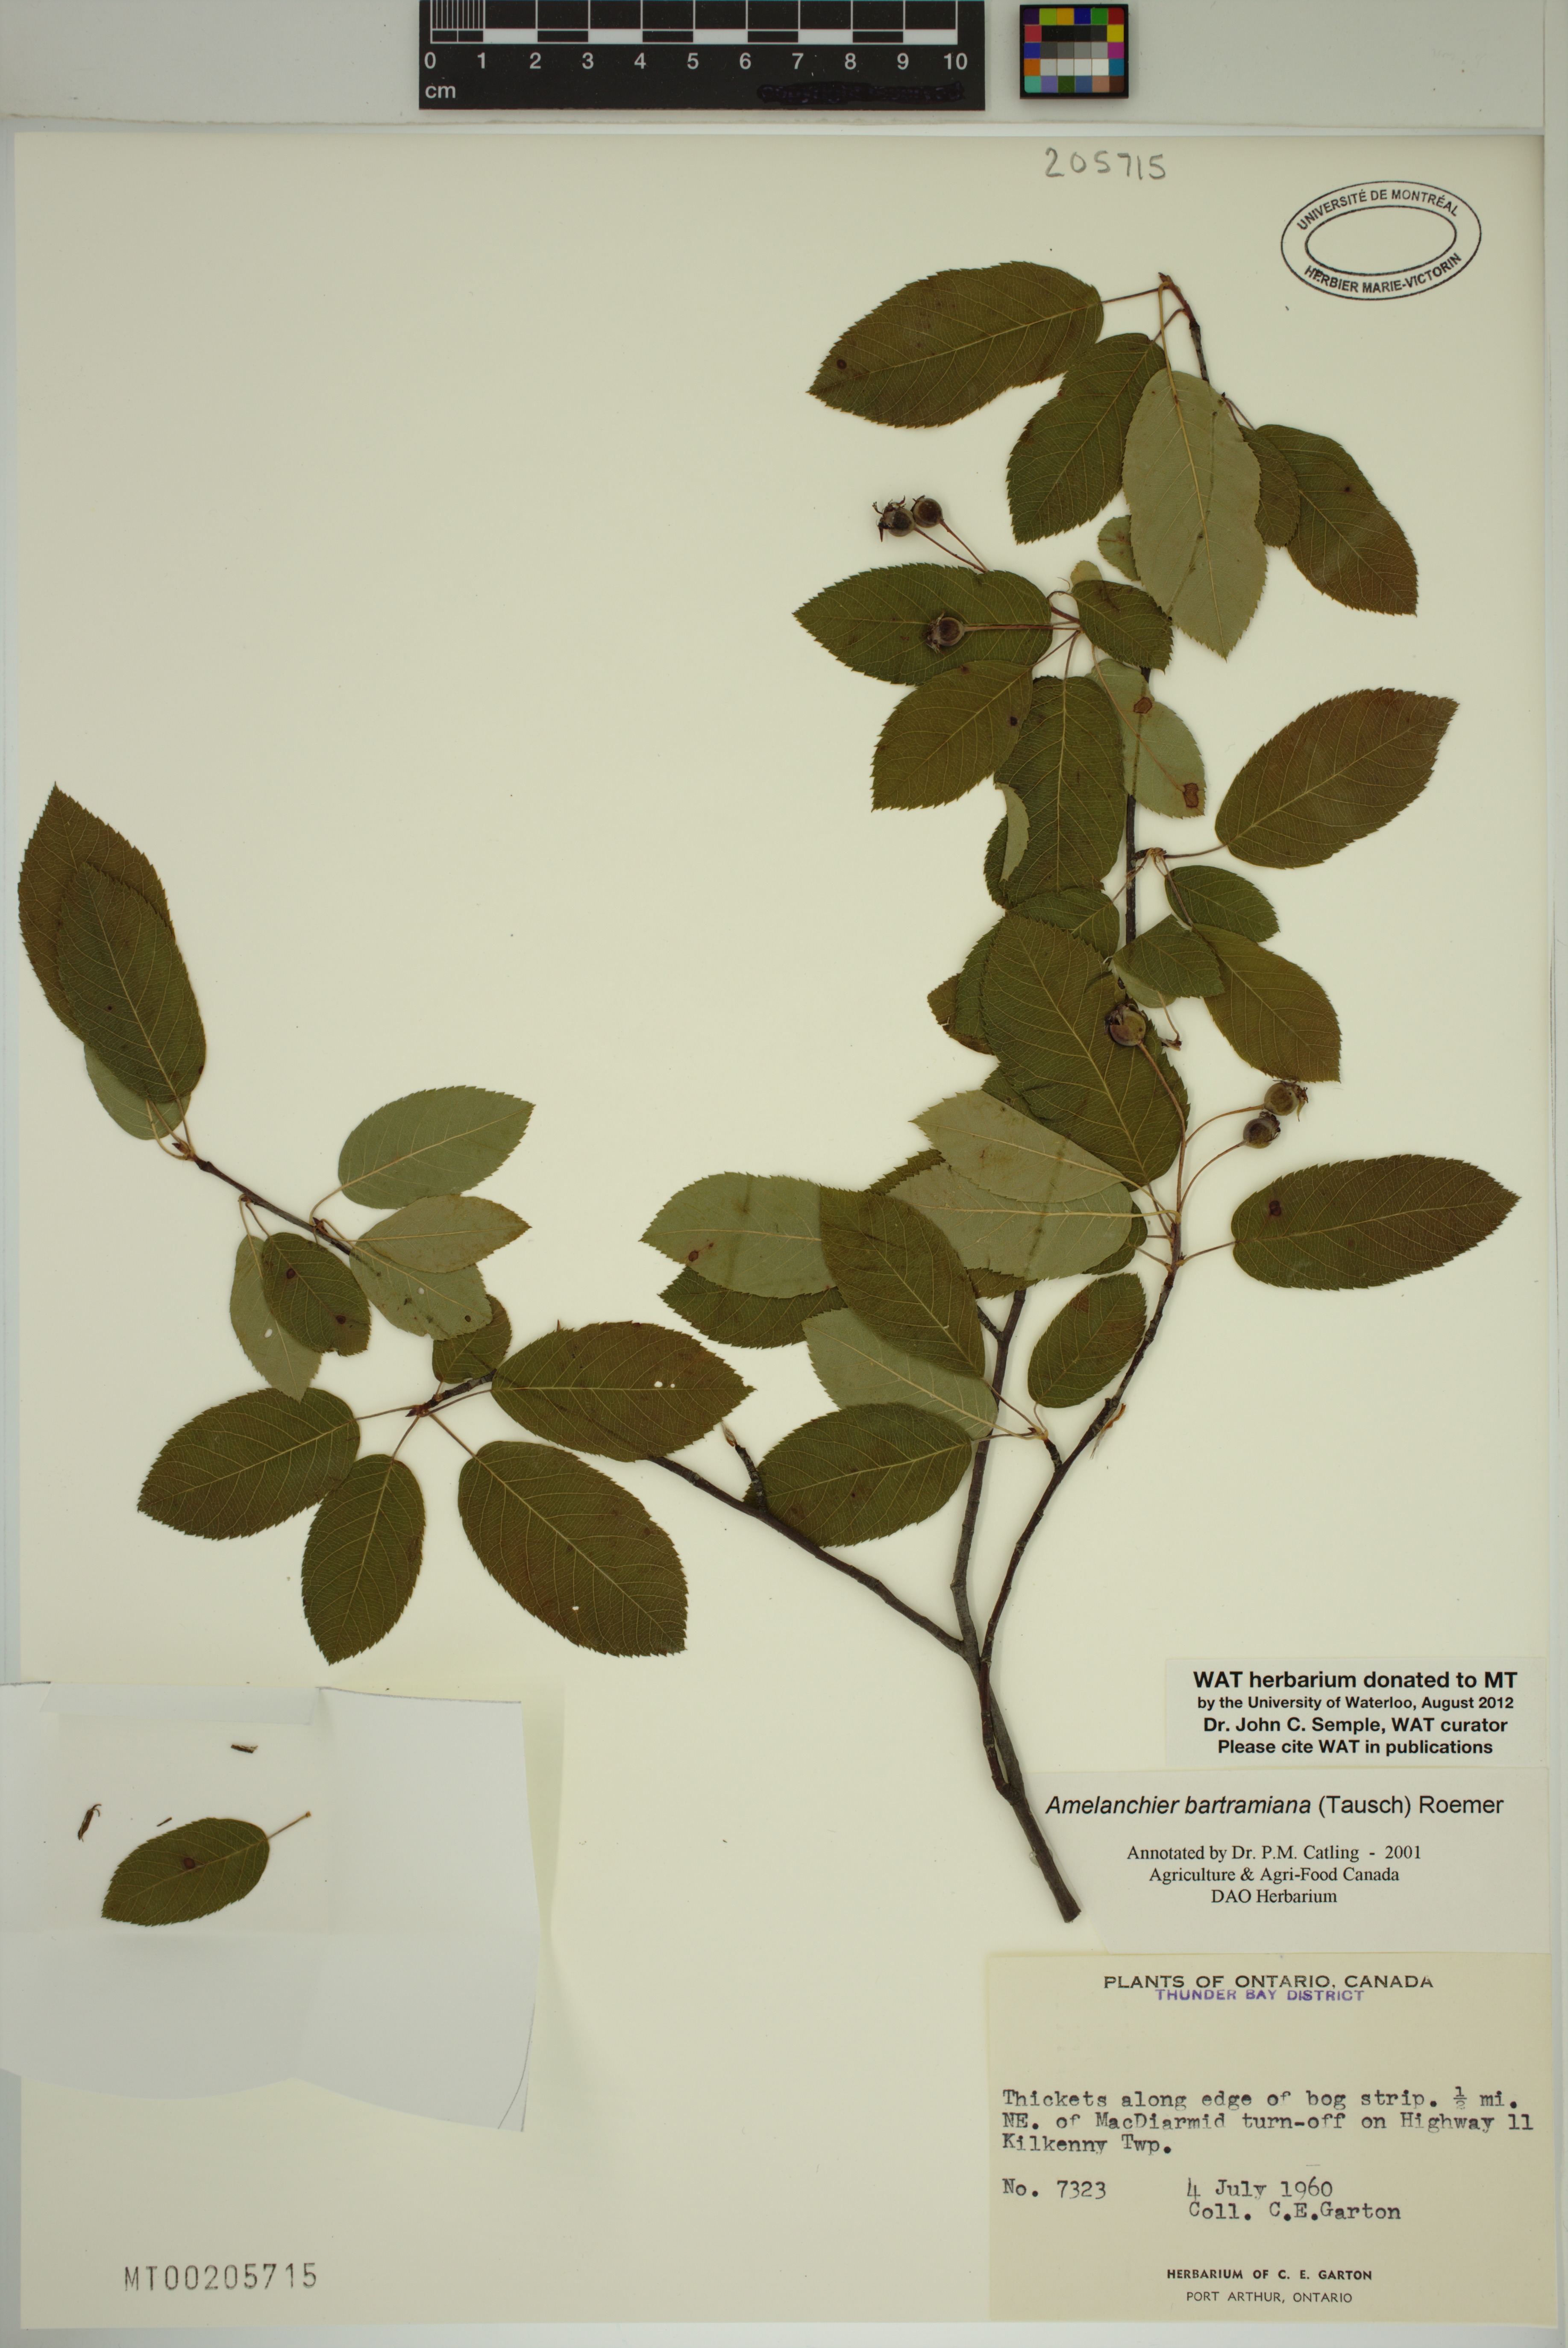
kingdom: Plantae
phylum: Tracheophyta
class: Magnoliopsida
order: Rosales
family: Rosaceae
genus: Amelanchier
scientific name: Amelanchier quinti-martii
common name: Cinq-mars' serviceberry
